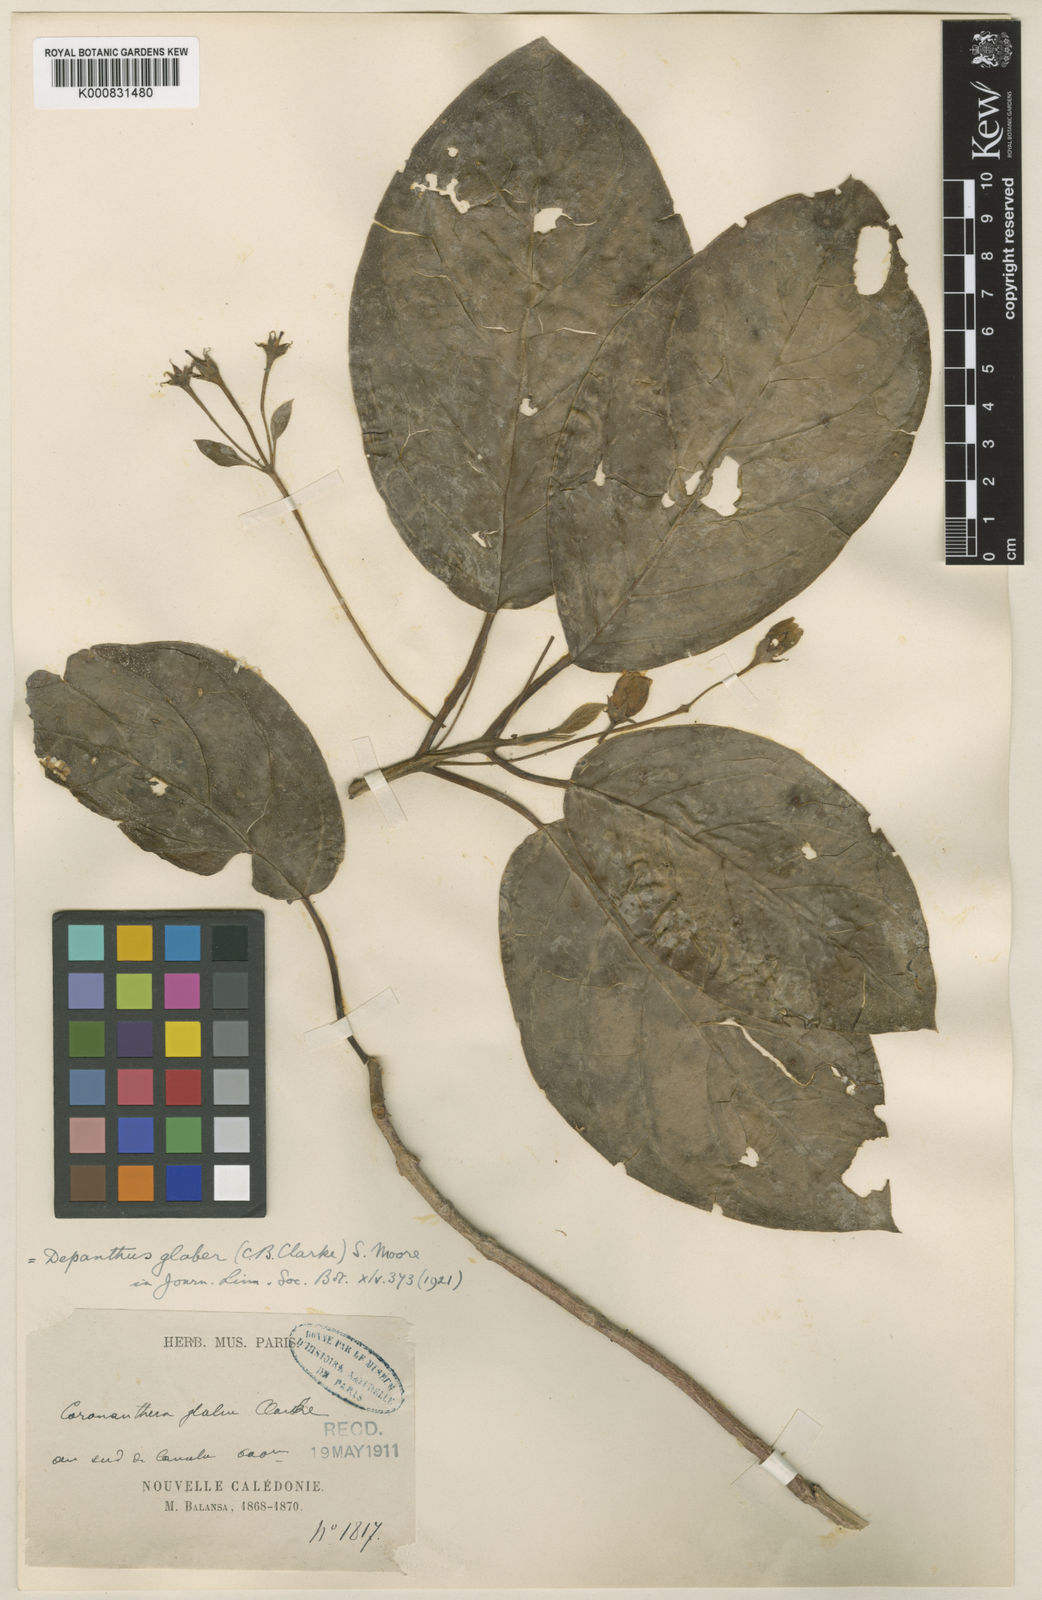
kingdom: Plantae
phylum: Tracheophyta
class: Magnoliopsida
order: Lamiales
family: Gesneriaceae
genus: Depanthus
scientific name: Depanthus glaber
